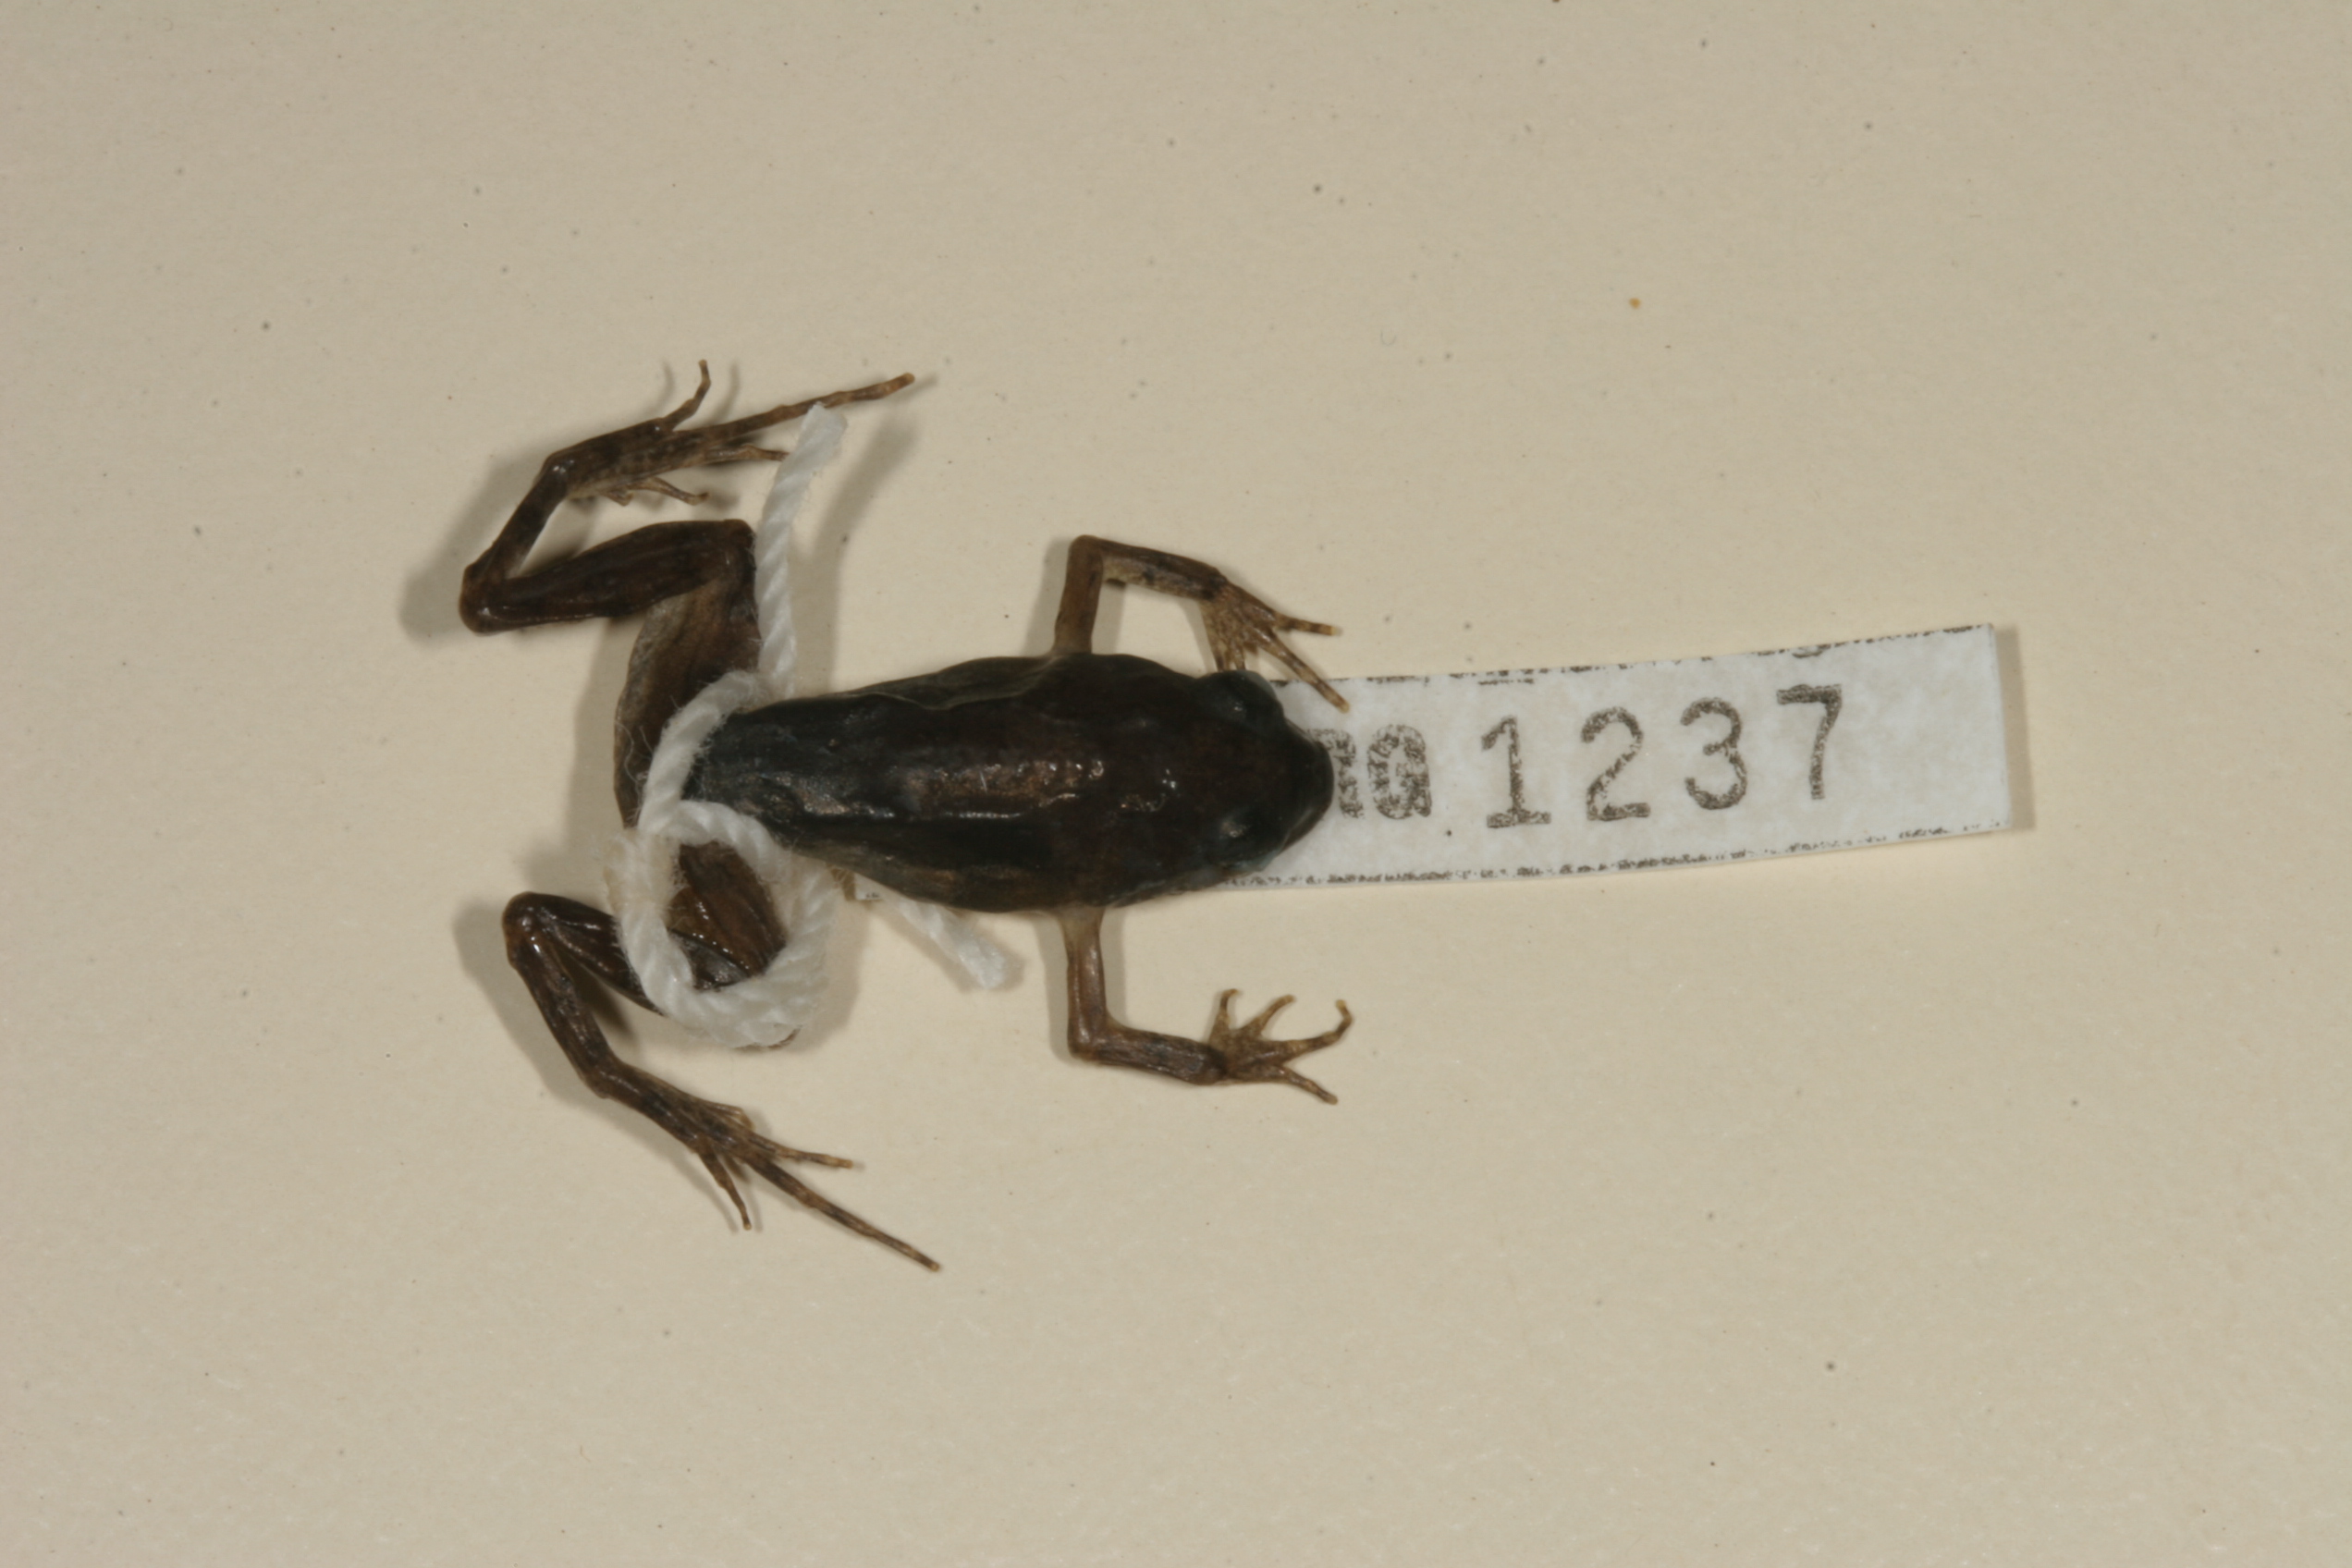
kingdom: Animalia
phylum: Chordata
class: Amphibia
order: Anura
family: Pyxicephalidae
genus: Cacosternum
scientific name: Cacosternum nanum
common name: Bronze dainty frog
